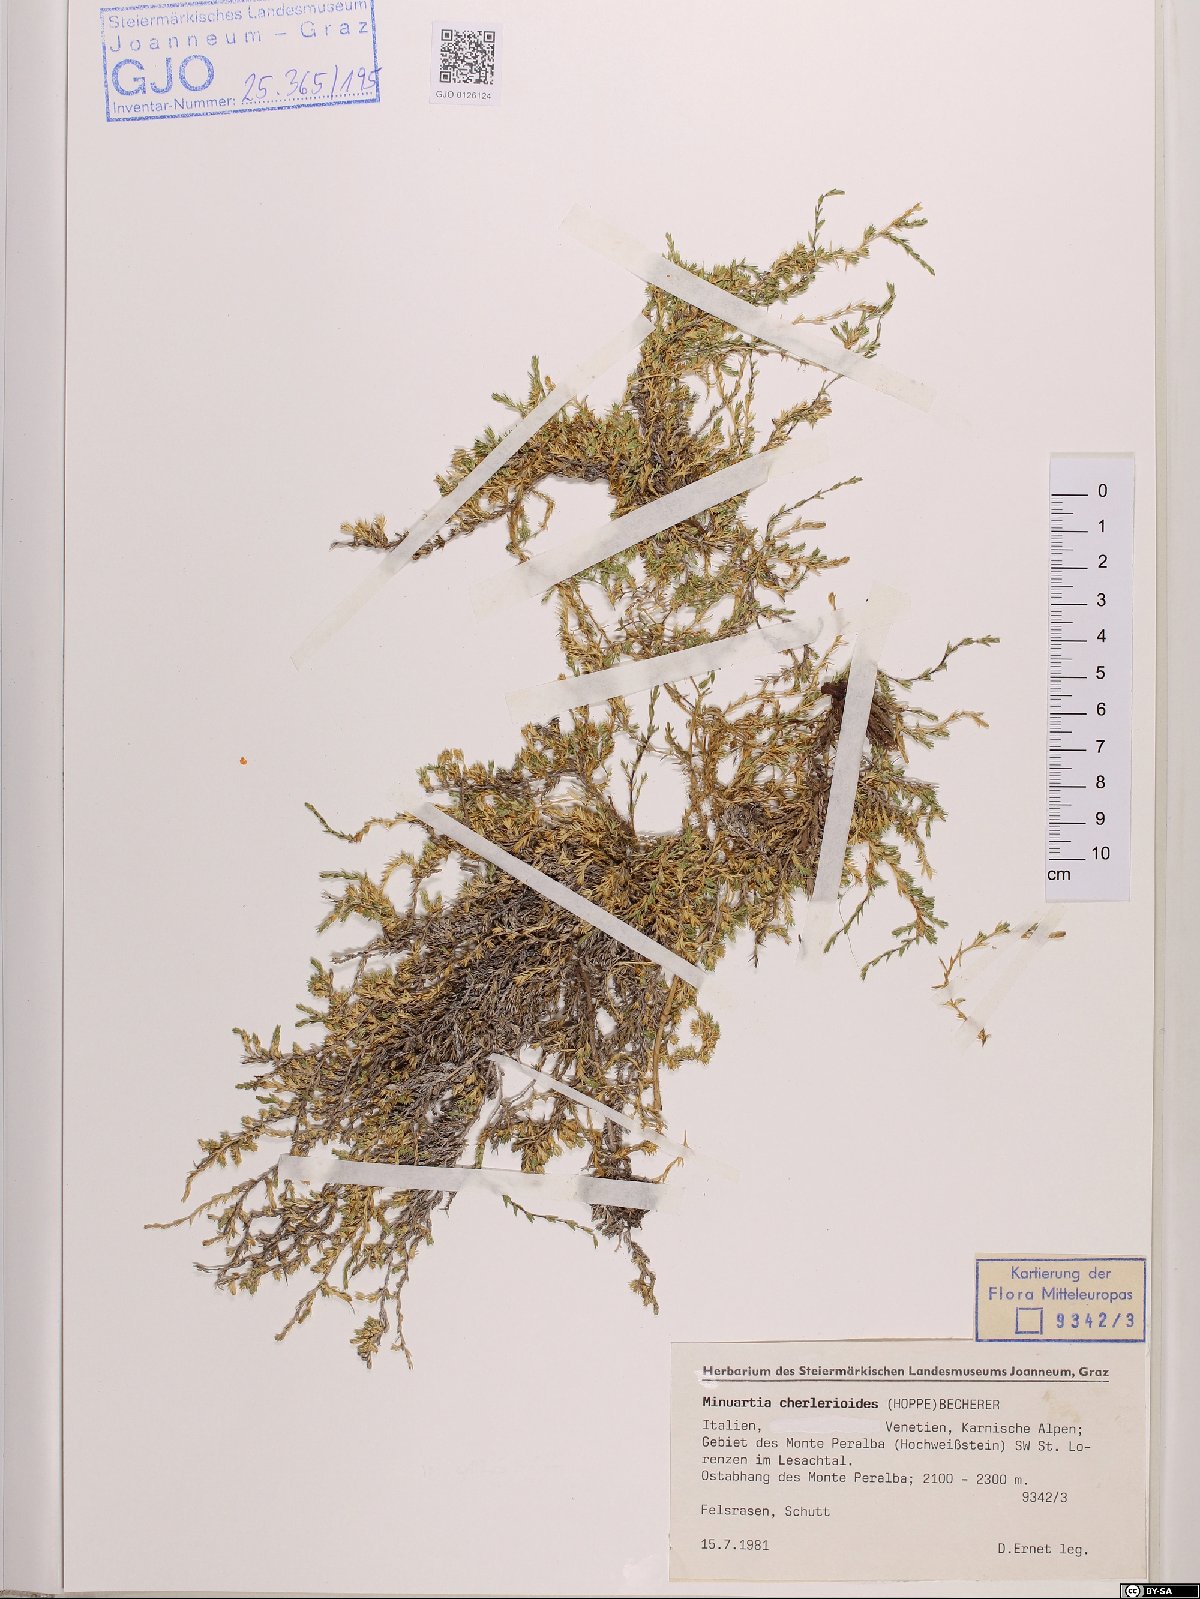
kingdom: Plantae
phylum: Tracheophyta
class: Magnoliopsida
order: Caryophyllales
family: Caryophyllaceae
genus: Facchinia
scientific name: Facchinia cherlerioides
